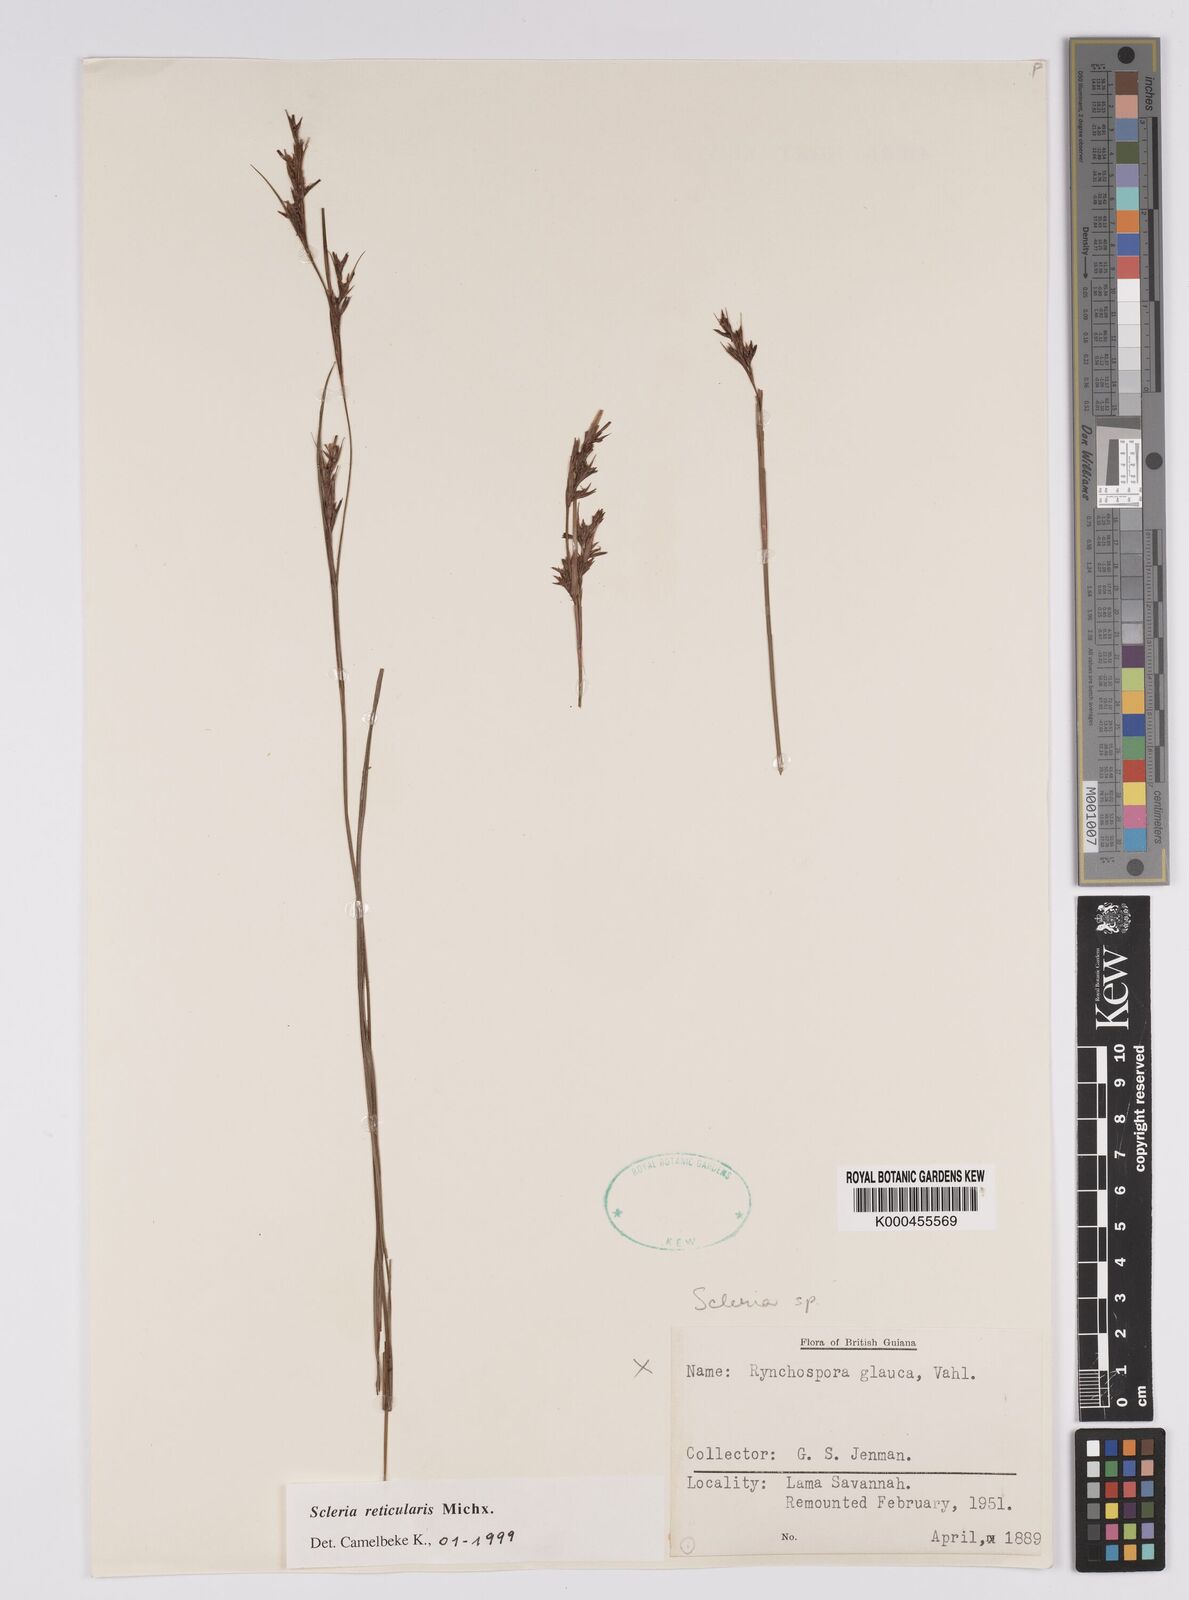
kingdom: Plantae
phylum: Tracheophyta
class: Liliopsida
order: Poales
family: Cyperaceae
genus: Scleria
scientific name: Scleria
